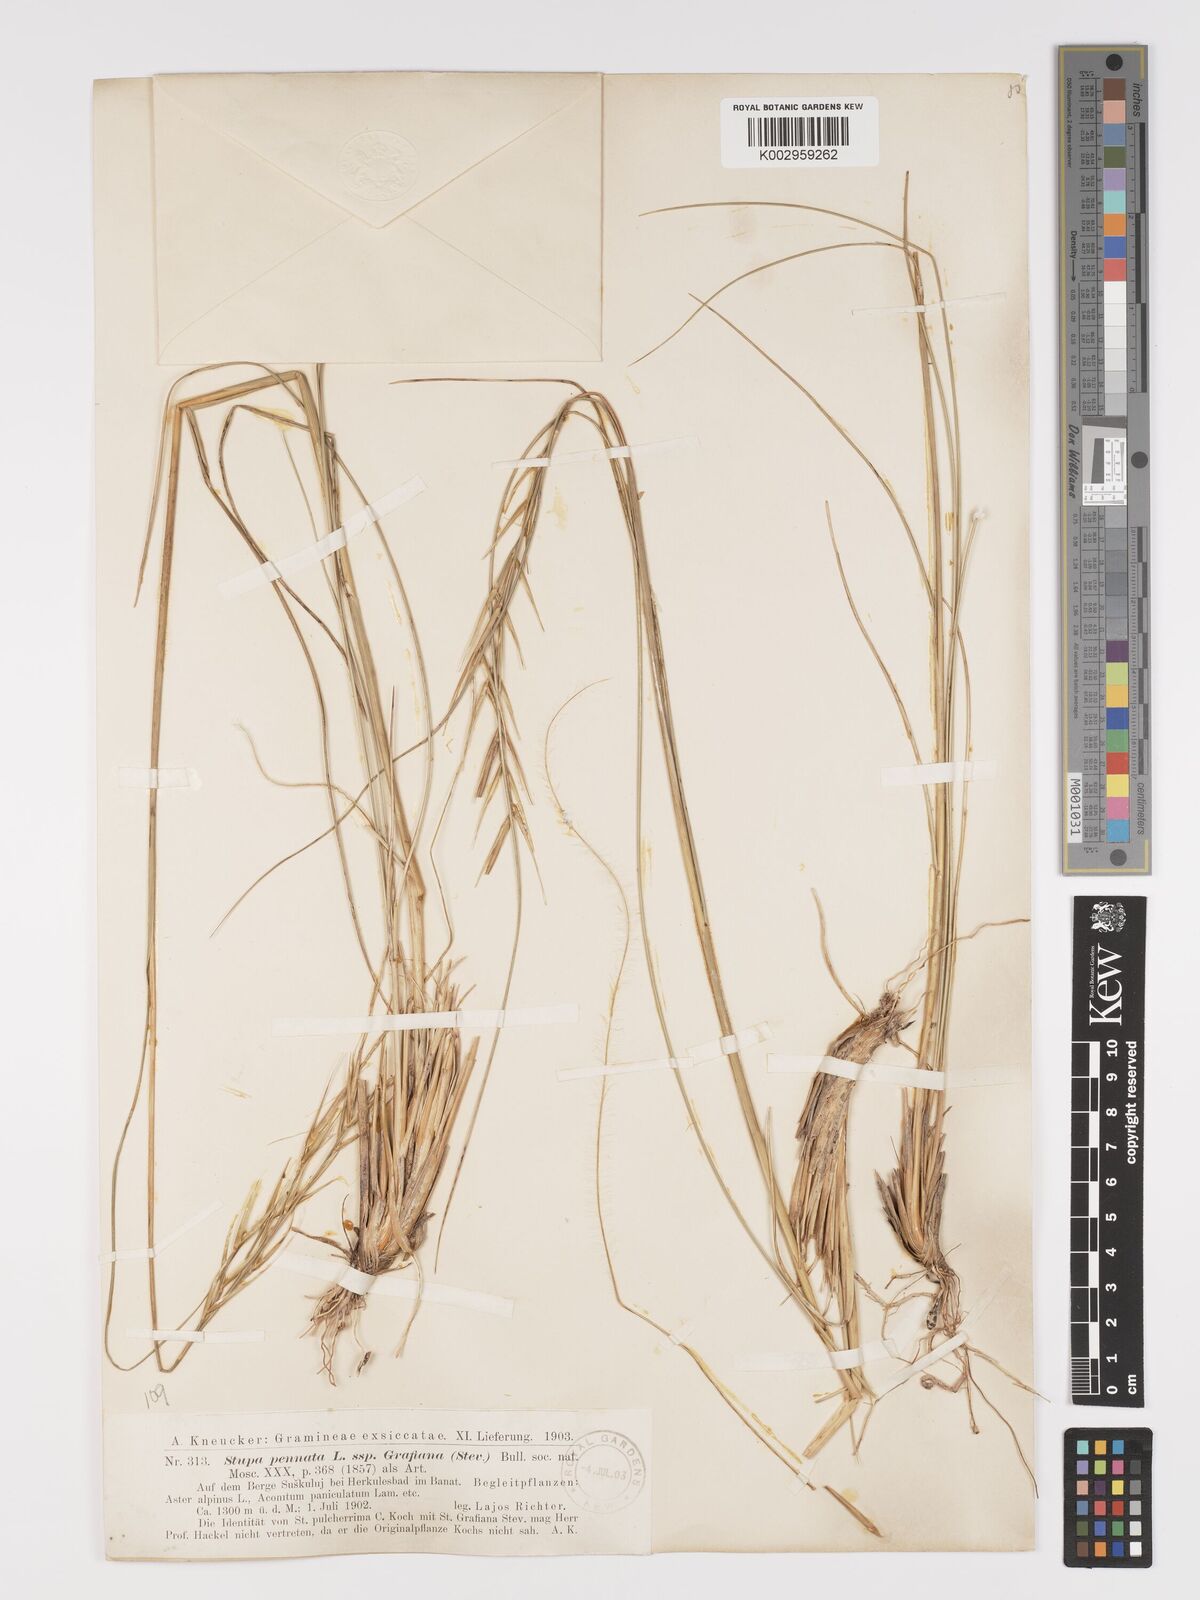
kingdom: Plantae
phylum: Tracheophyta
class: Liliopsida
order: Poales
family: Poaceae
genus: Stipa
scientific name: Stipa pulcherrima
